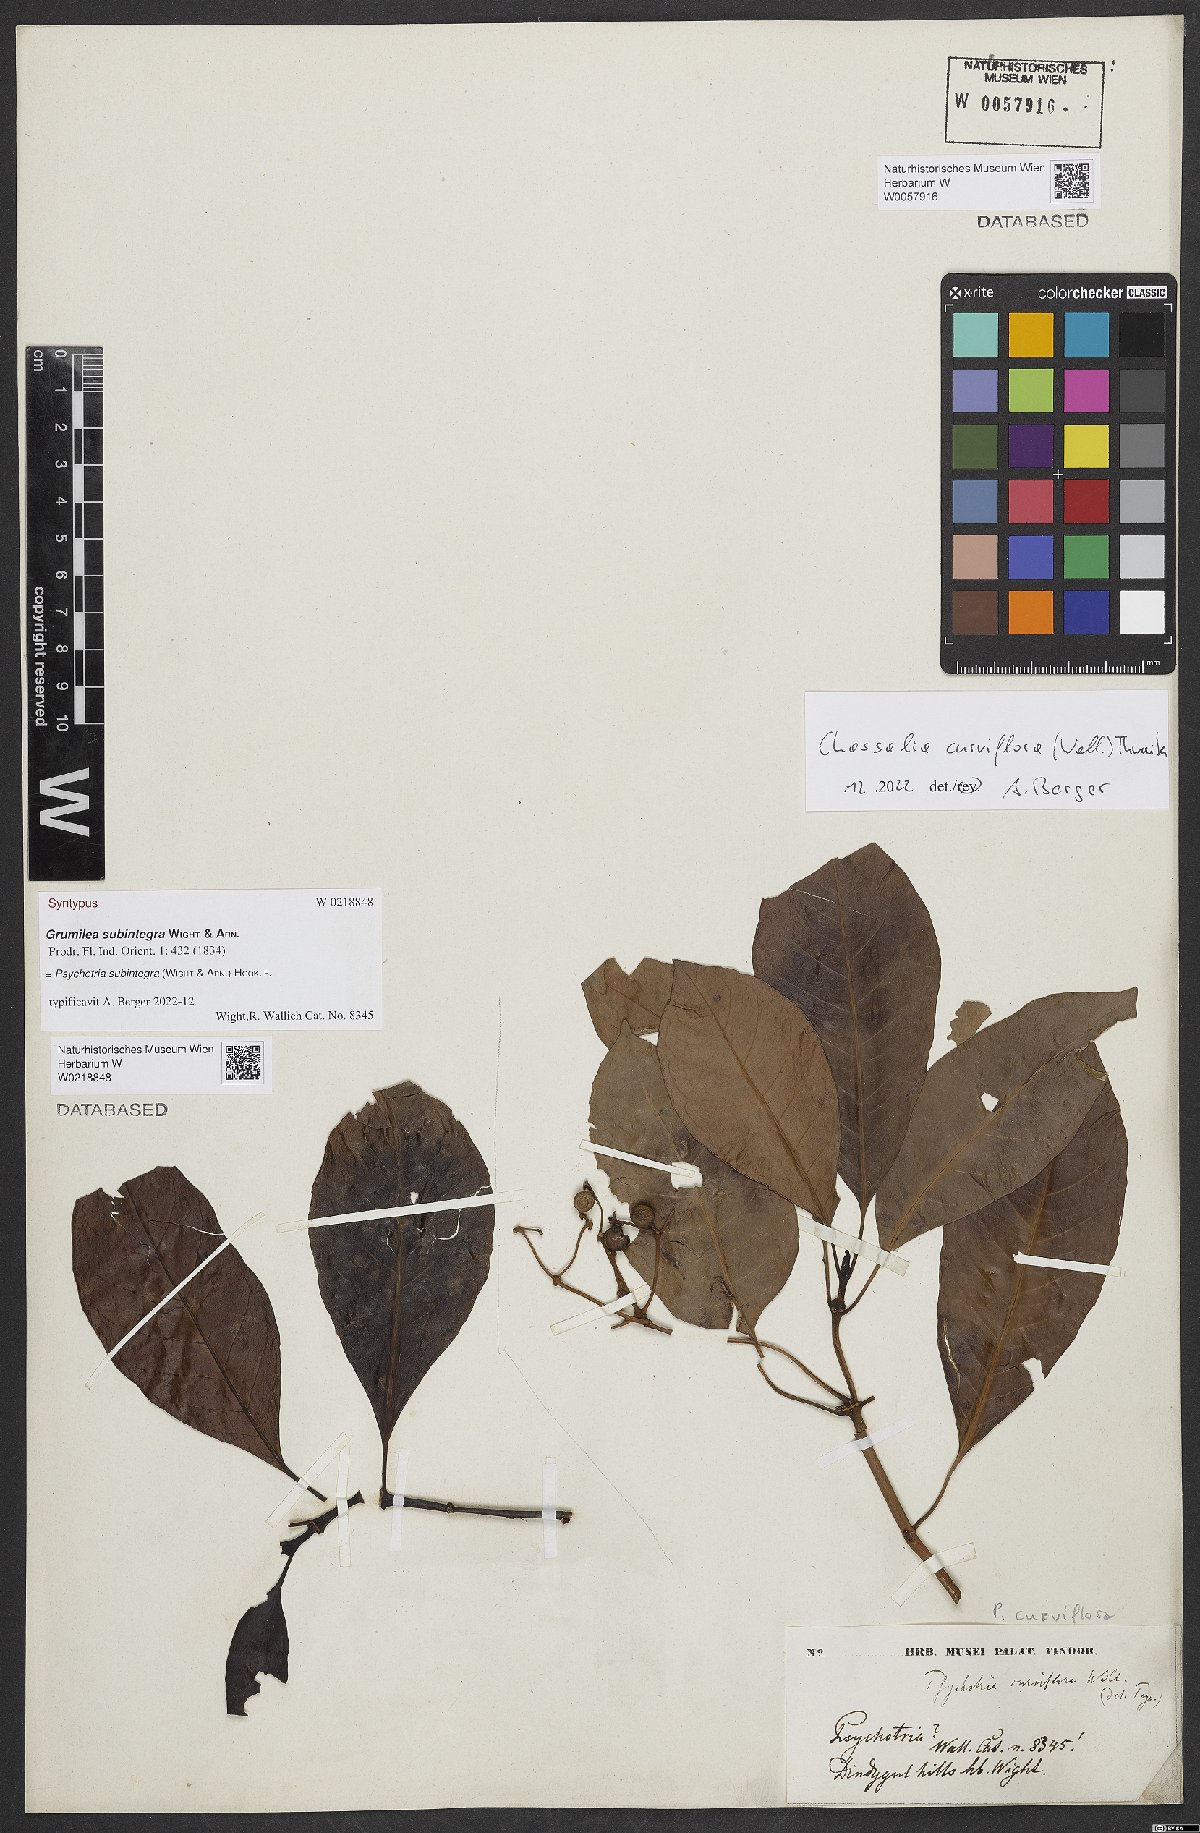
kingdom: Plantae
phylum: Tracheophyta
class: Magnoliopsida
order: Gentianales
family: Rubiaceae
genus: Psychotria
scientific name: Psychotria subintegra
